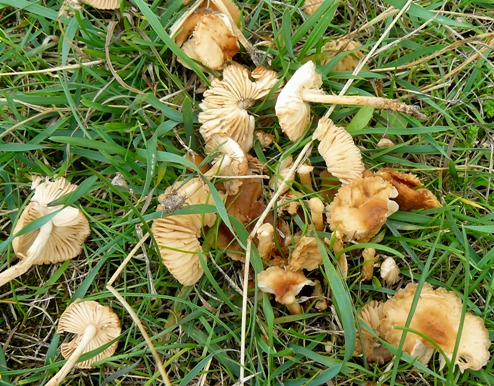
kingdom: Fungi
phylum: Basidiomycota
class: Agaricomycetes
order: Agaricales
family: Marasmiaceae
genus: Marasmius
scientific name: Marasmius oreades
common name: elledans-bruskhat
